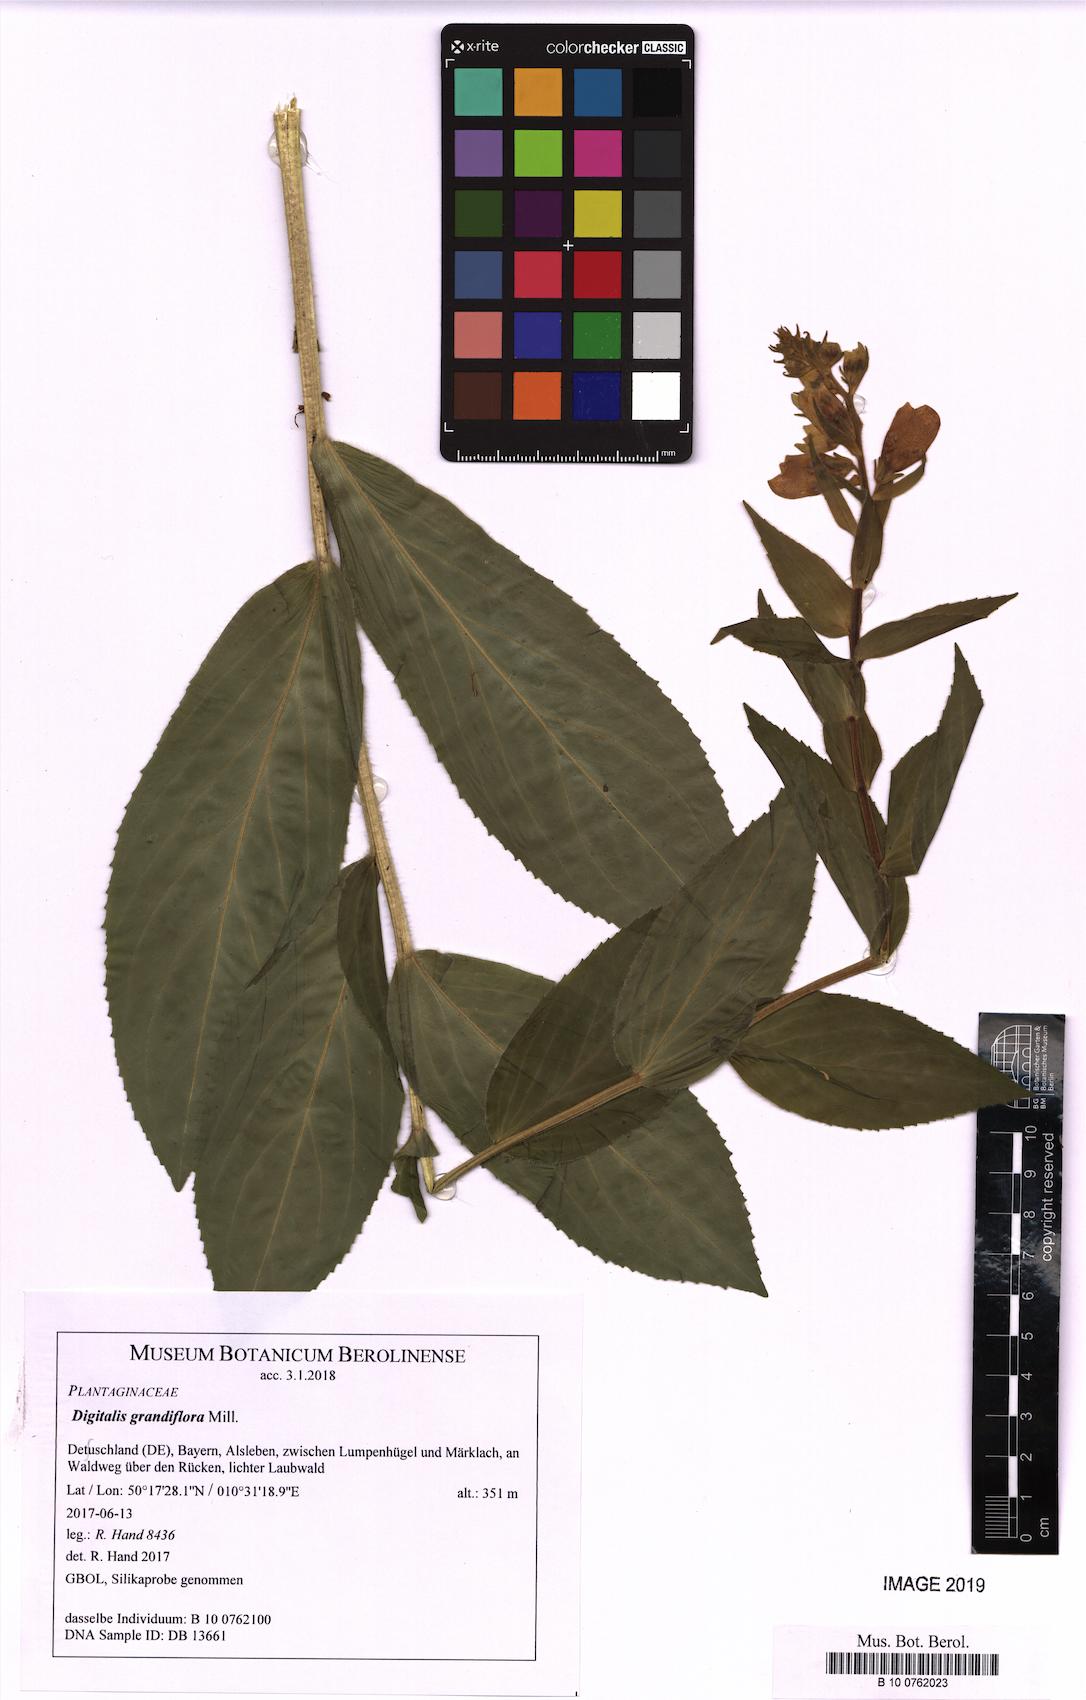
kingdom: Plantae
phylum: Tracheophyta
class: Magnoliopsida
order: Lamiales
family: Plantaginaceae
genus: Digitalis
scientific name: Digitalis grandiflora
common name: Yellow foxglove
